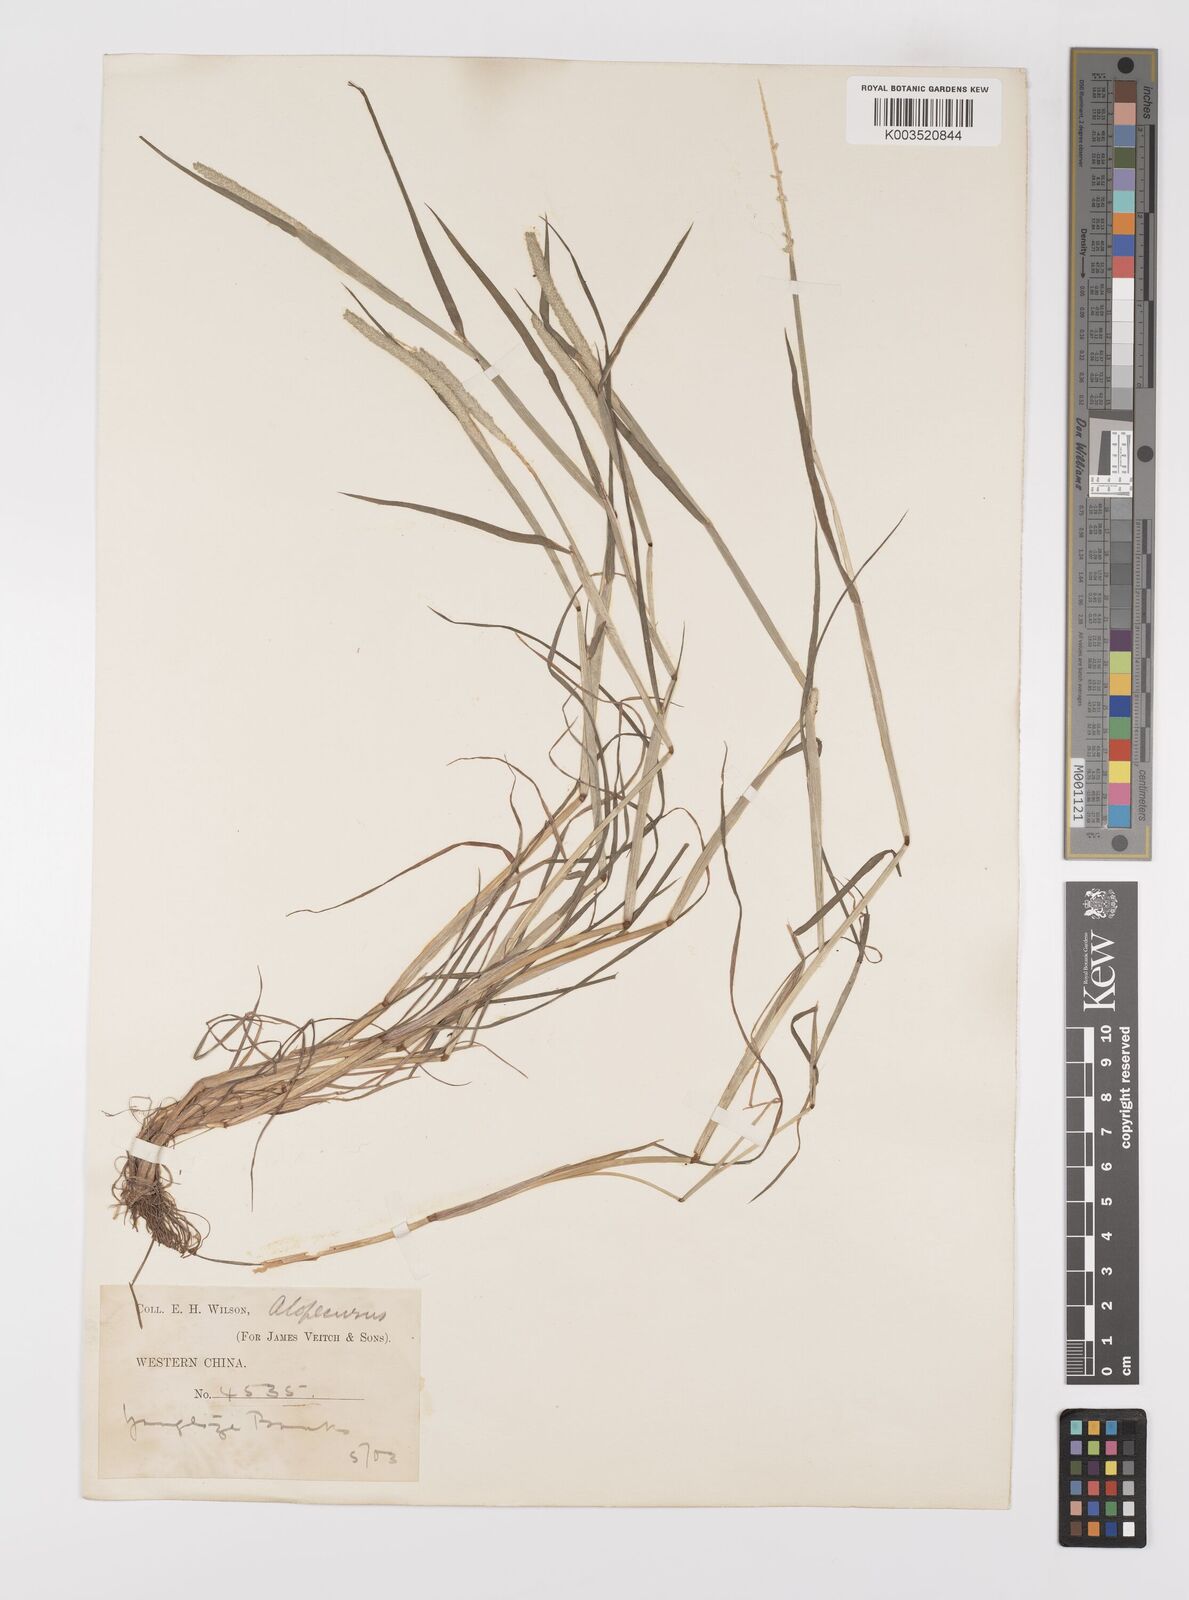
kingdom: Plantae
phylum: Tracheophyta
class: Liliopsida
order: Poales
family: Poaceae
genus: Alopecurus
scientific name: Alopecurus aequalis
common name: Orange foxtail
